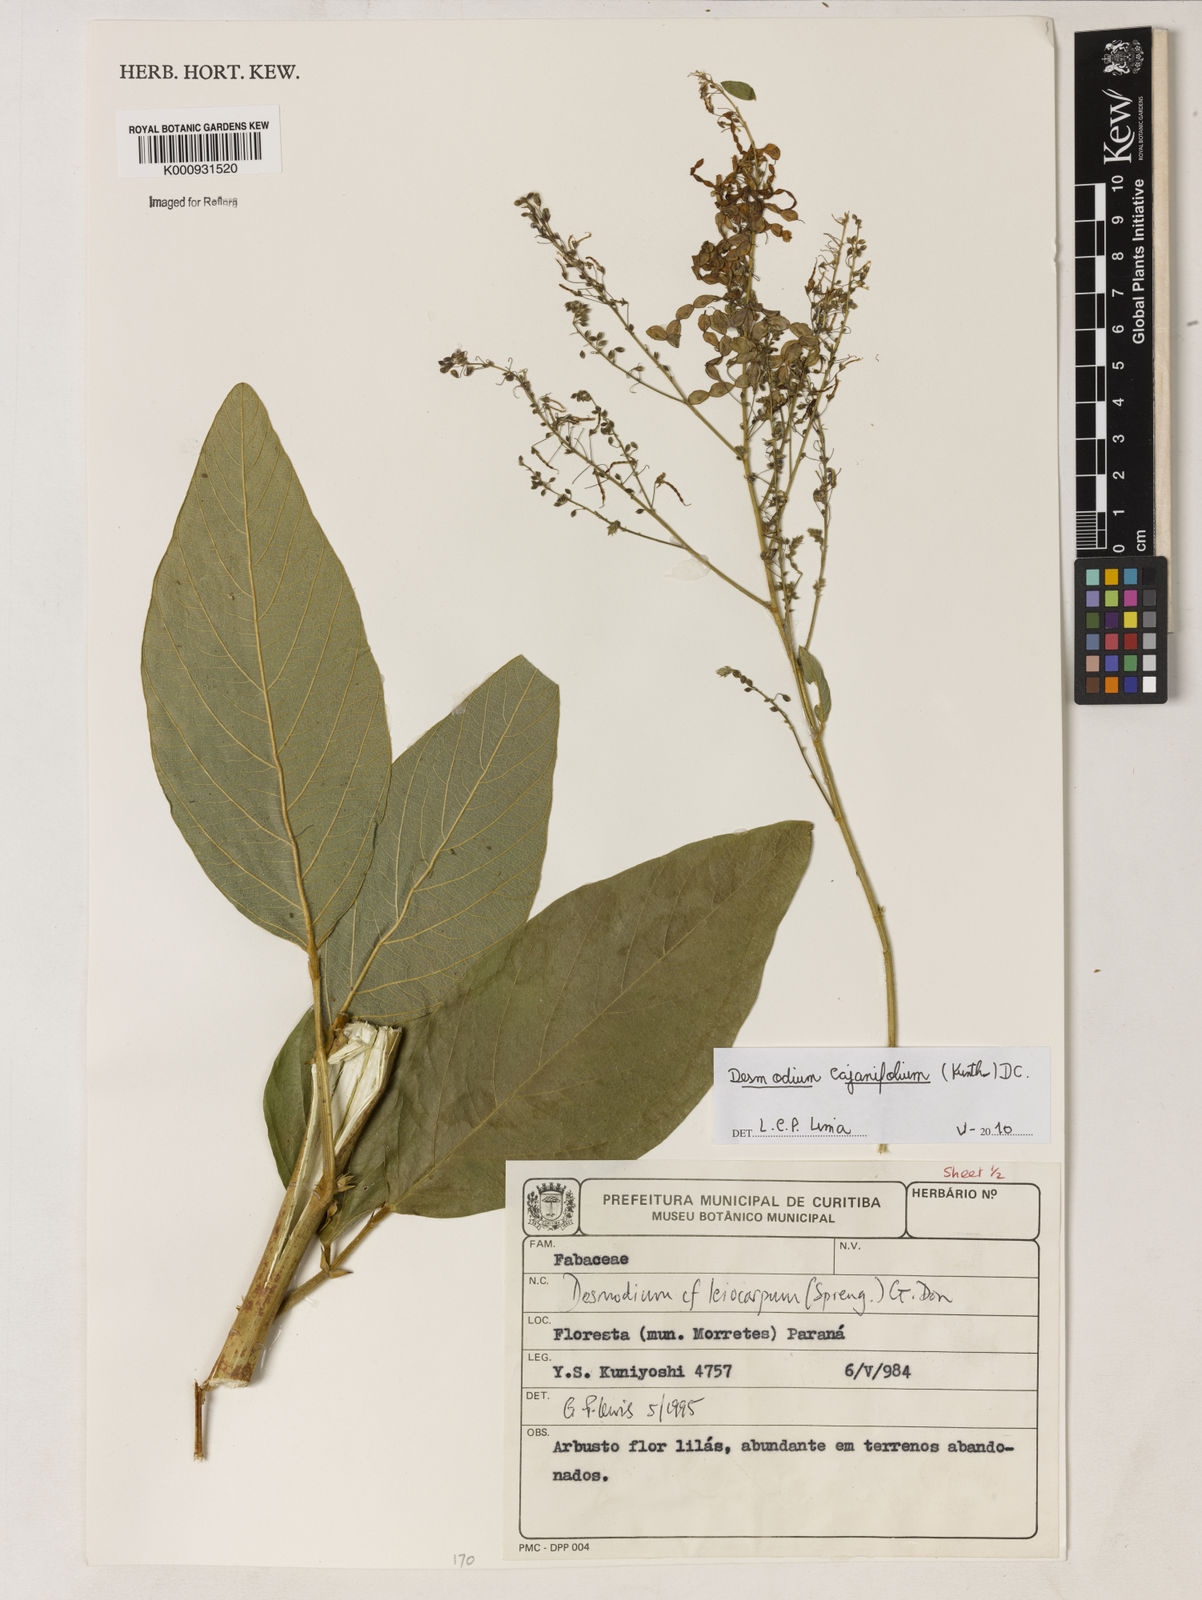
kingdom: Plantae
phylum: Tracheophyta
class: Magnoliopsida
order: Fabales
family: Fabaceae
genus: Desmodium
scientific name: Desmodium cajanifolium
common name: Tropical ticktrefoil
